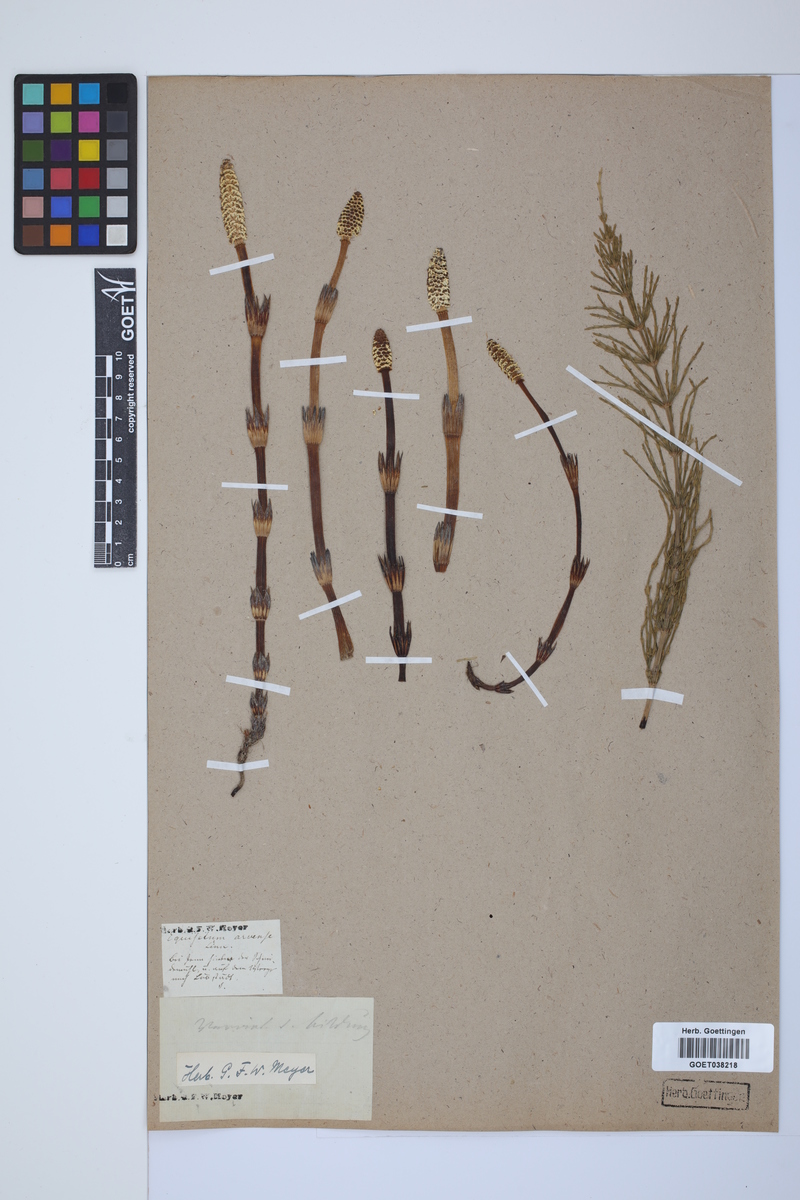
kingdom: Plantae
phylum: Tracheophyta
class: Polypodiopsida
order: Equisetales
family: Equisetaceae
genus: Equisetum
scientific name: Equisetum arvense
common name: Field horsetail
